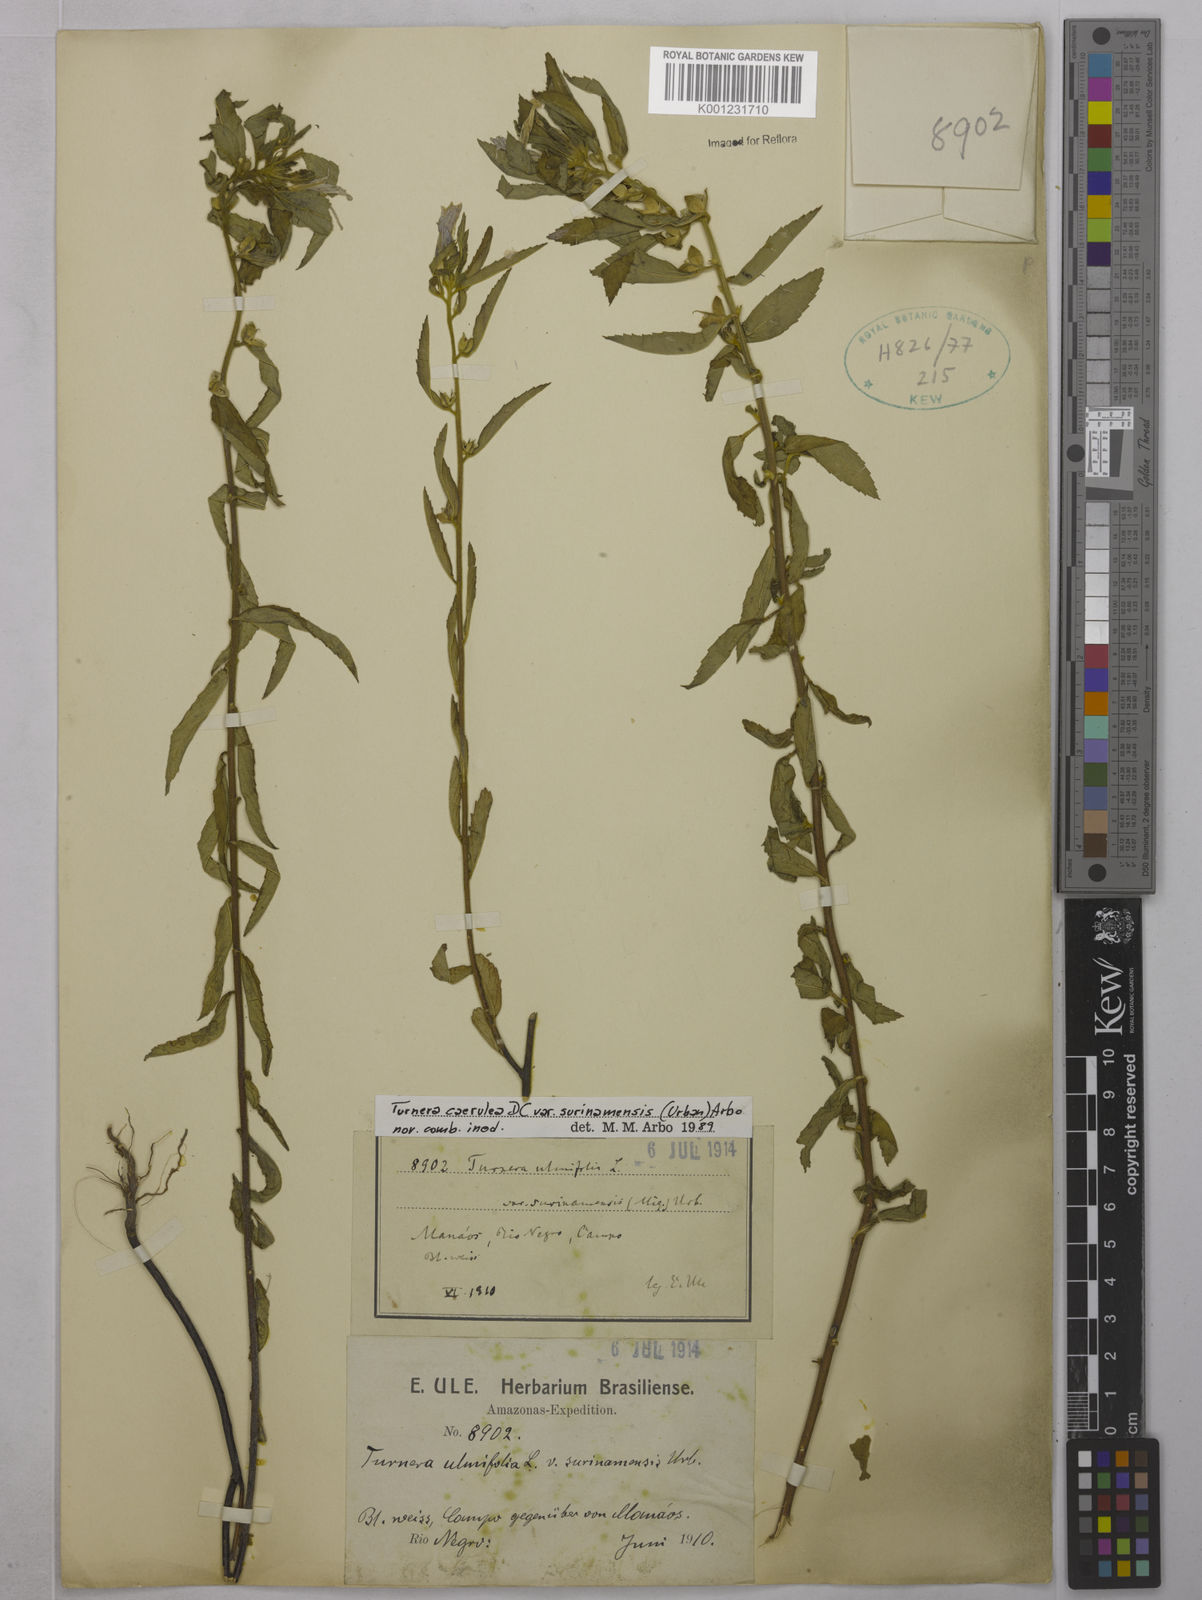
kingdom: Plantae
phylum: Tracheophyta
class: Magnoliopsida
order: Malpighiales
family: Turneraceae
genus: Turnera
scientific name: Turnera
